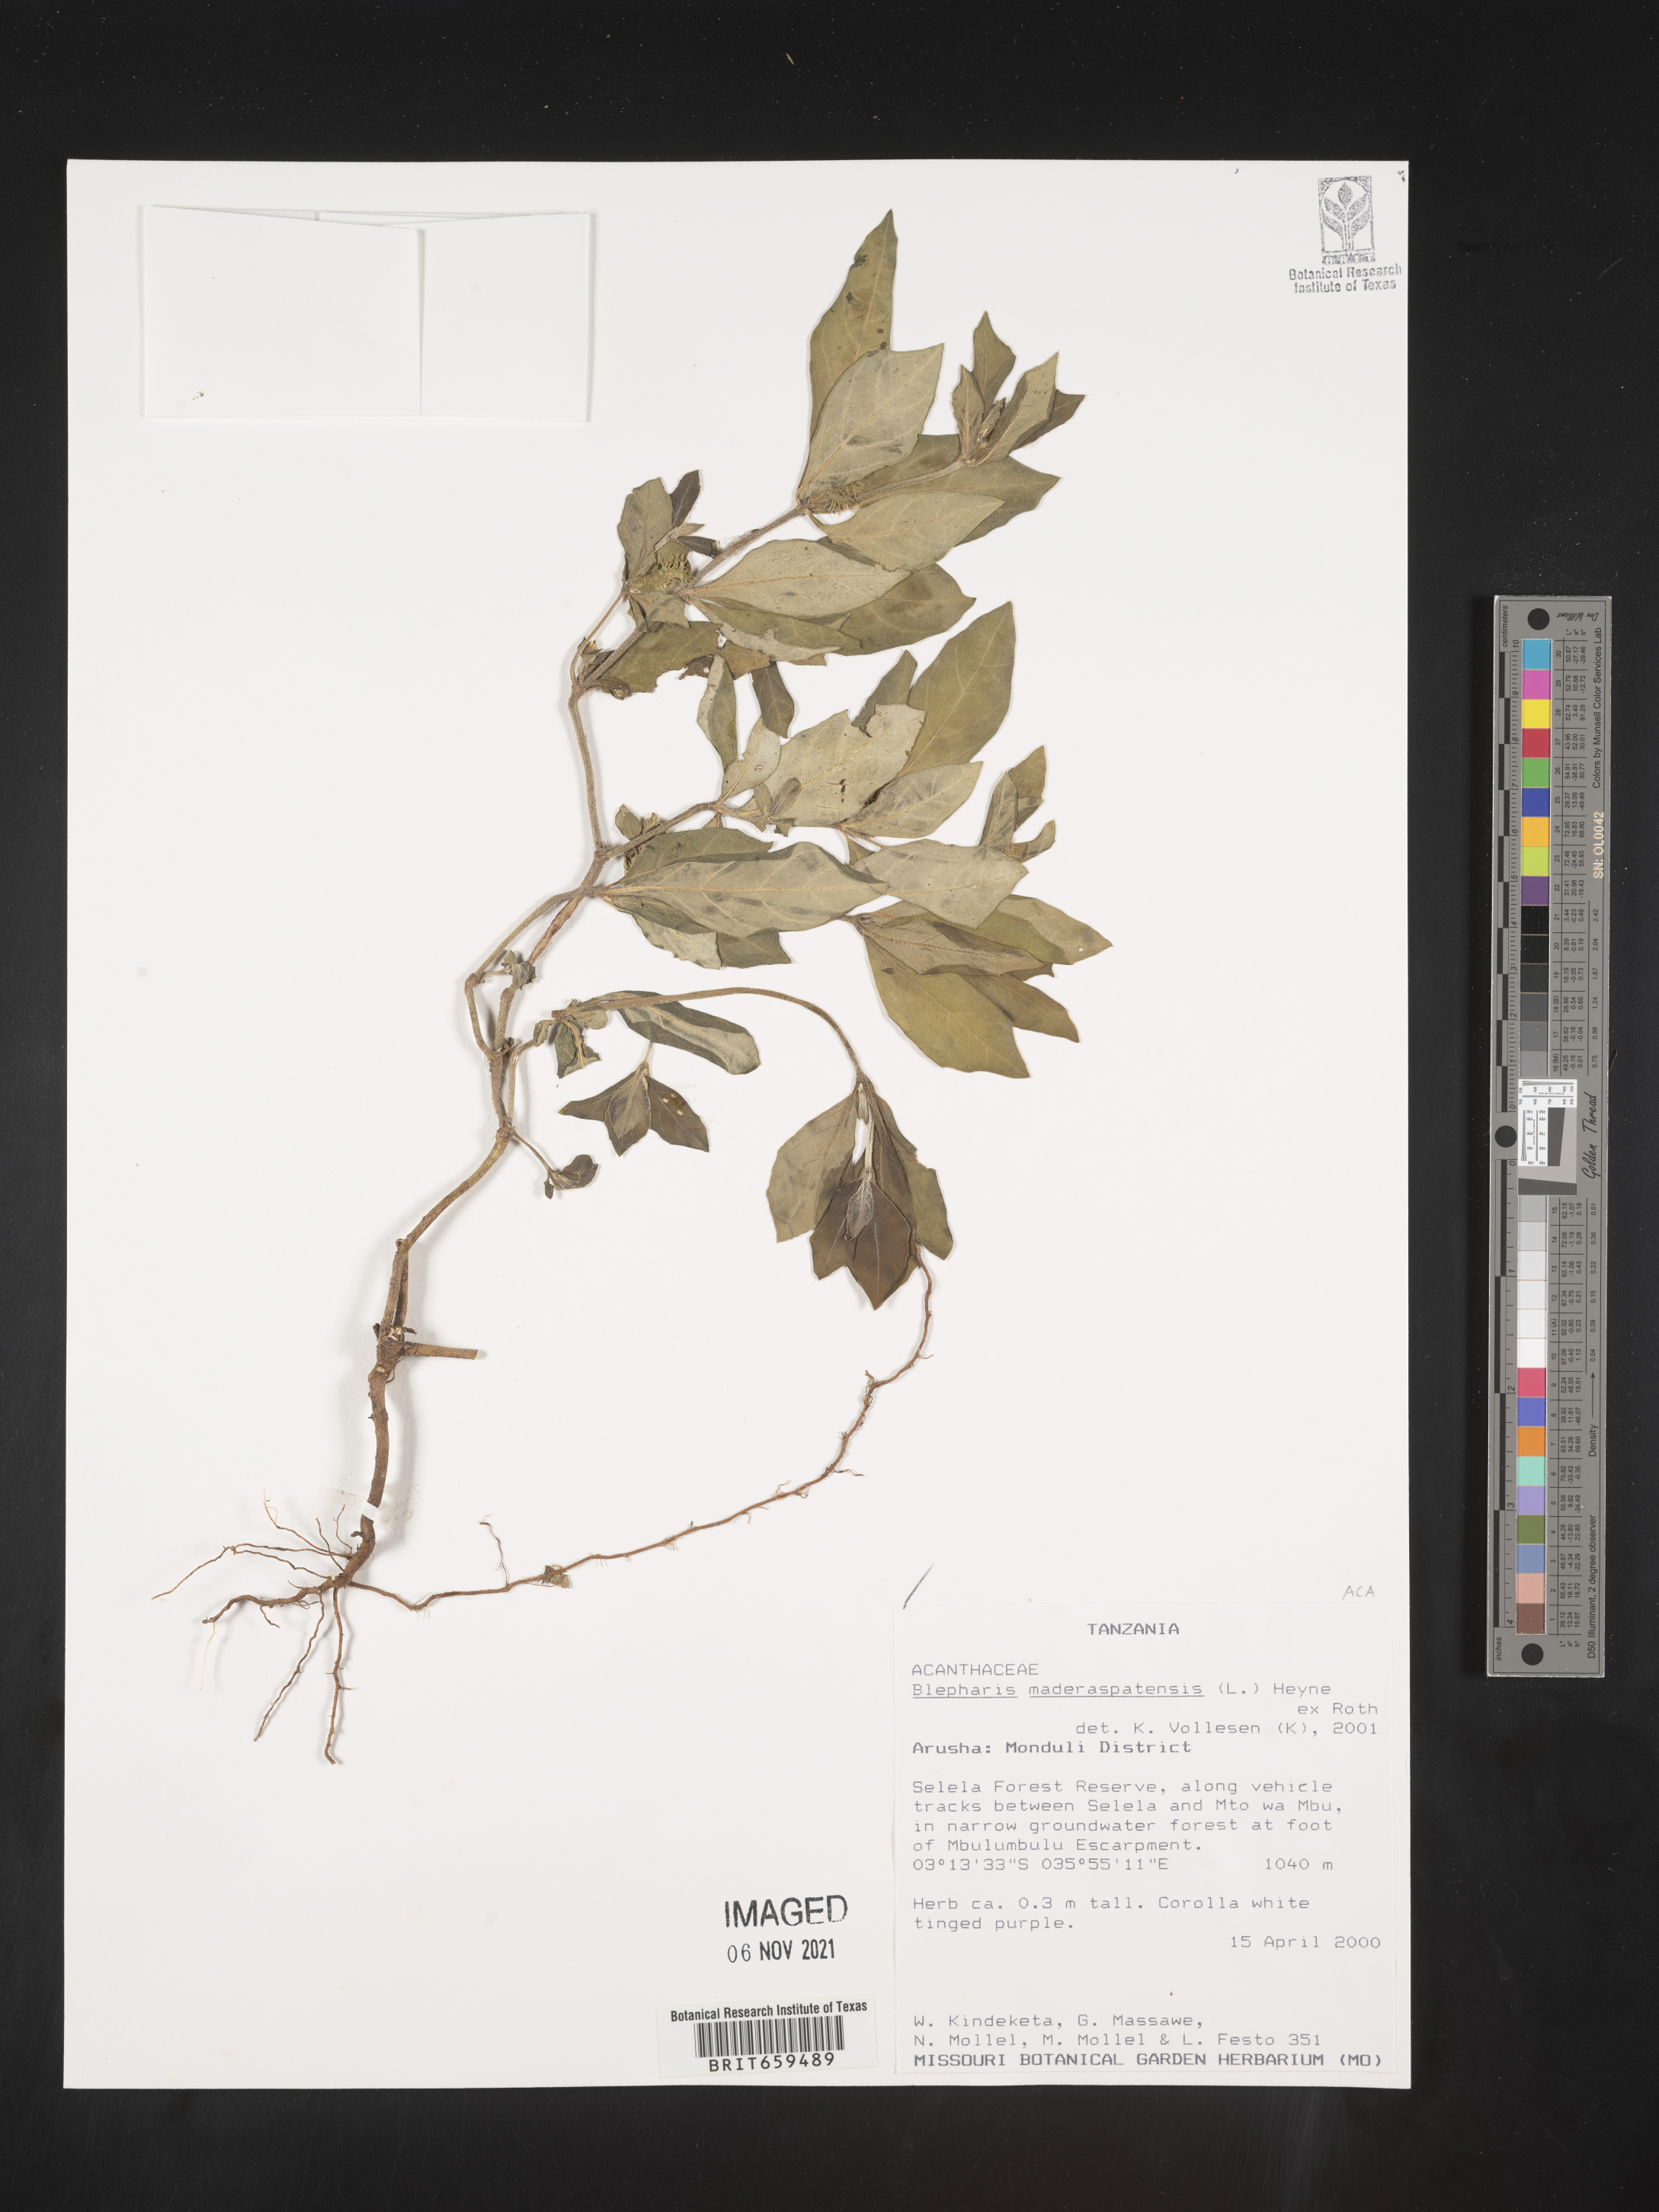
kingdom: Plantae
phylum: Tracheophyta
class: Magnoliopsida
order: Lamiales
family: Acanthaceae
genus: Blepharis
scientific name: Blepharis maderaspatensis
